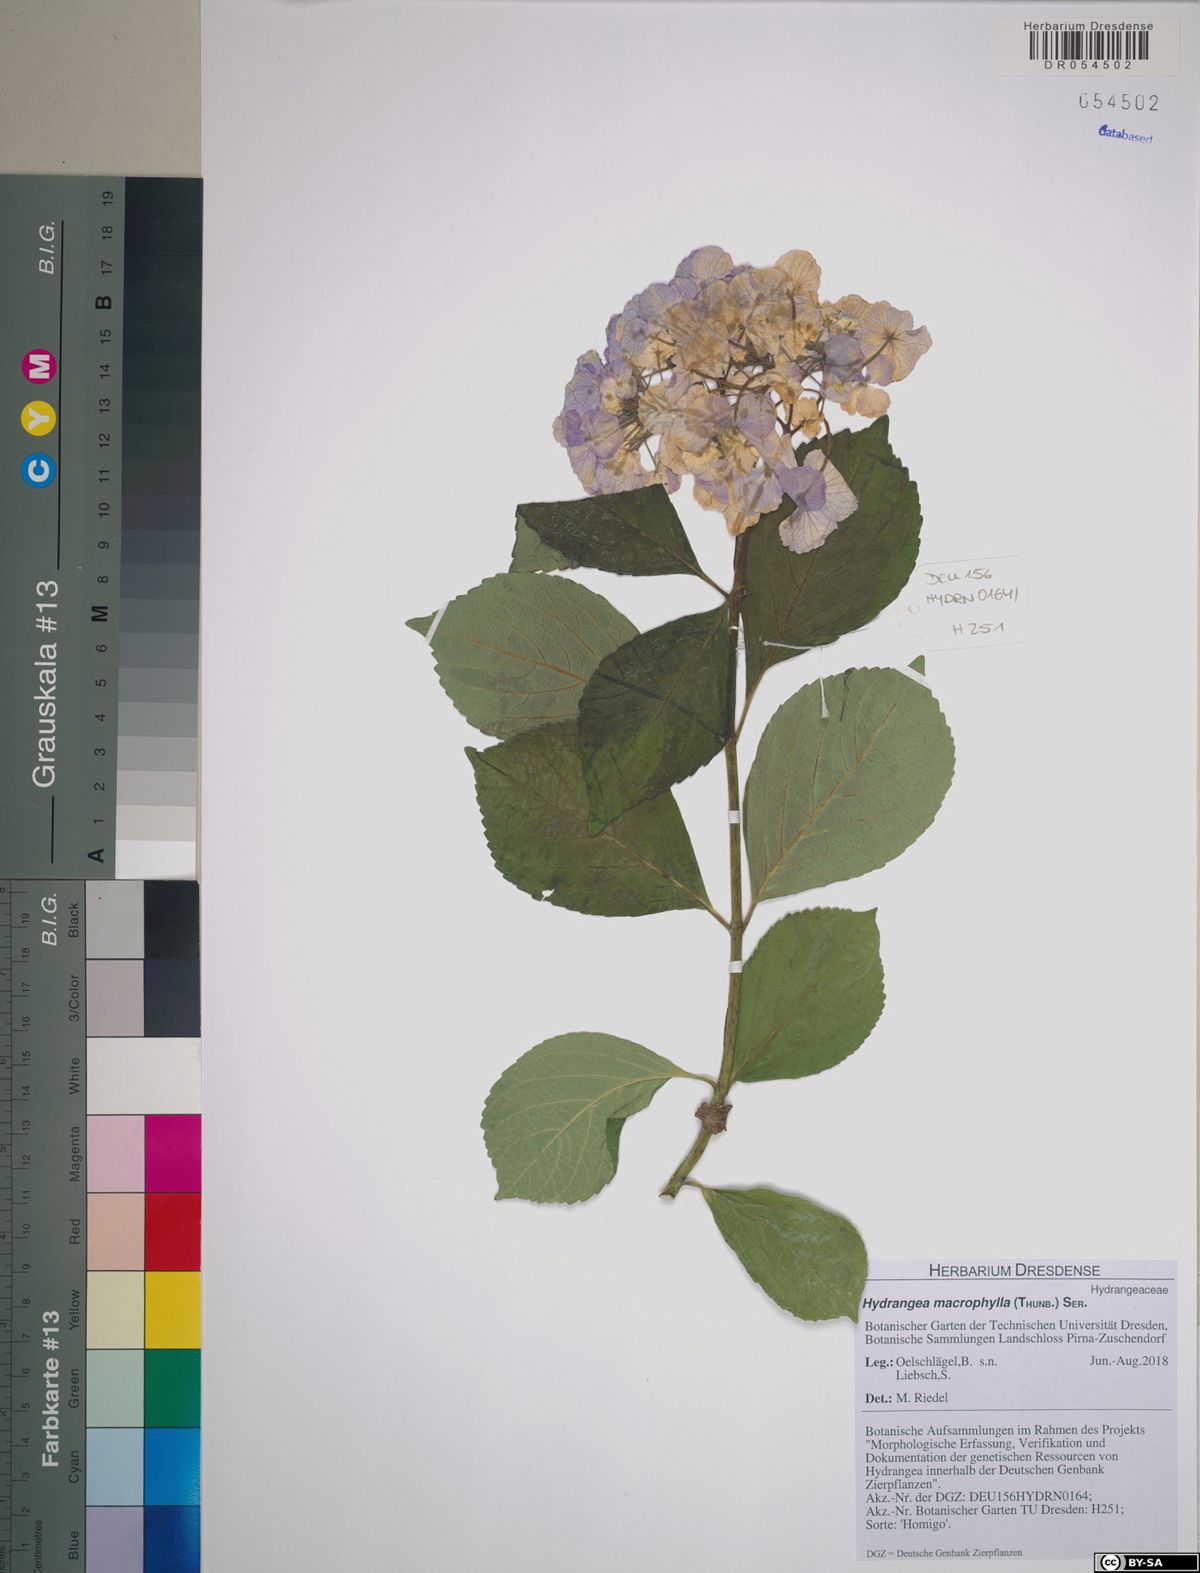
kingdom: Plantae
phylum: Tracheophyta
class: Magnoliopsida
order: Cornales
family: Hydrangeaceae
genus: Hydrangea
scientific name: Hydrangea macrophylla
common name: Hydrangea
